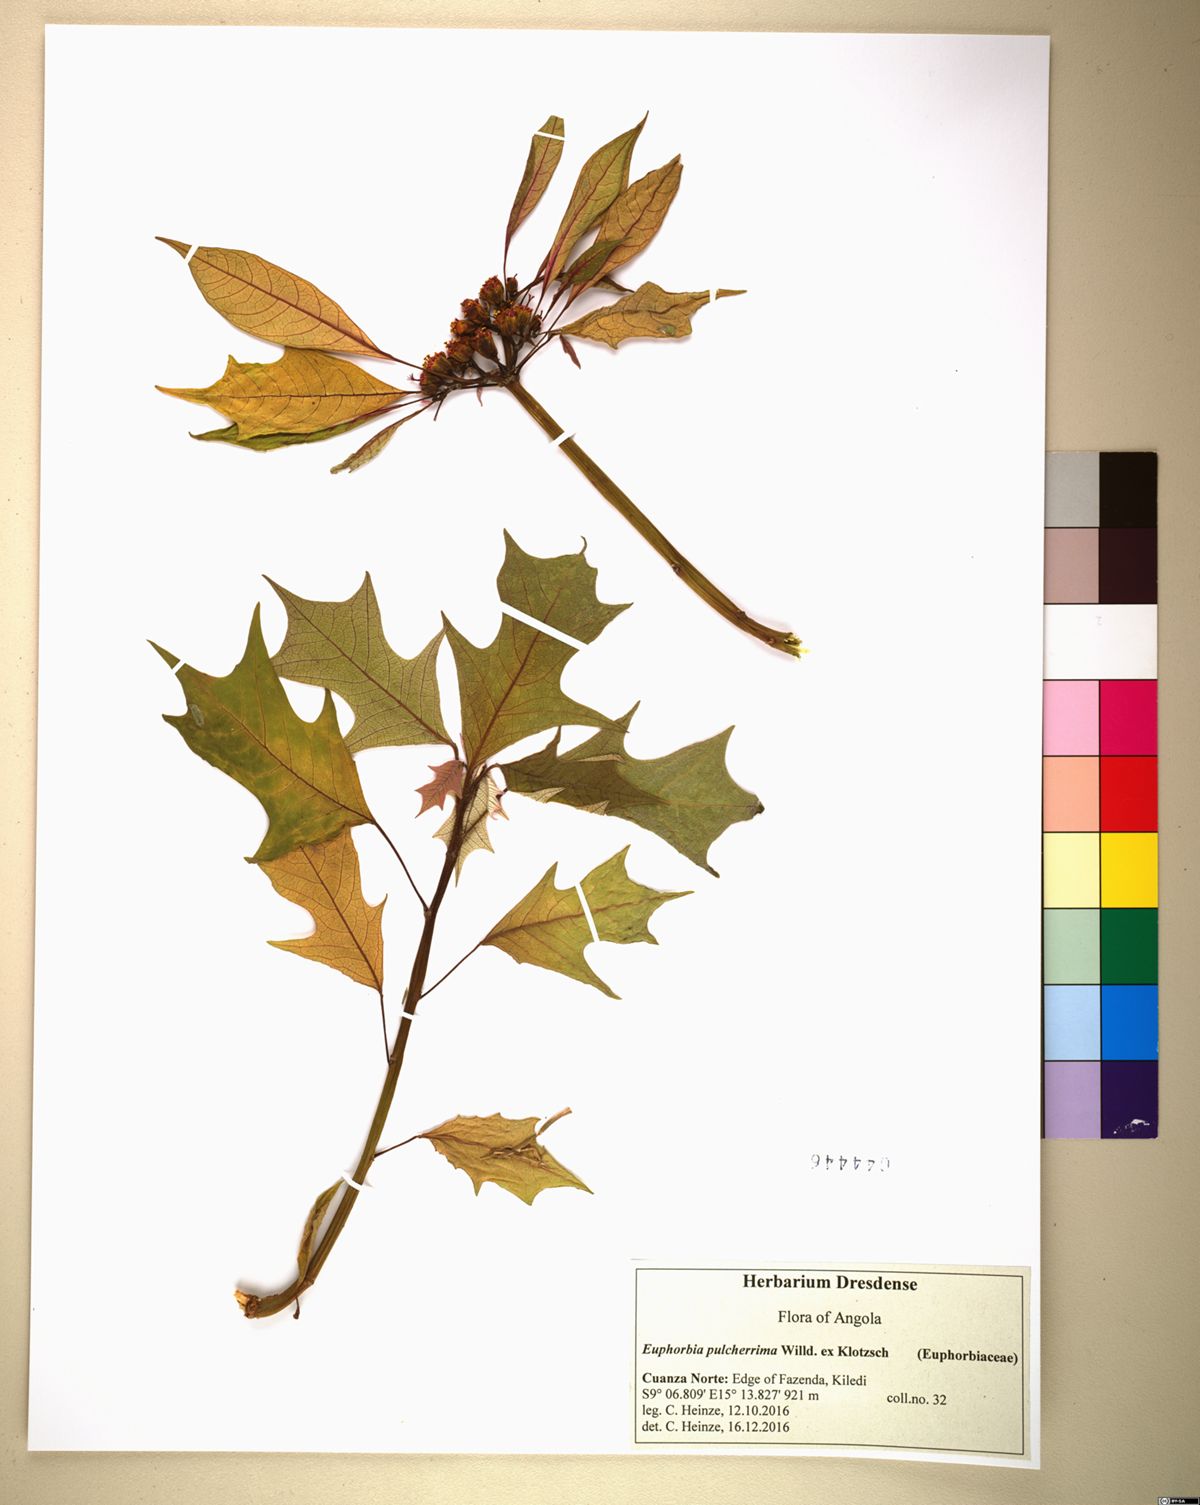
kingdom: Plantae
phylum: Tracheophyta
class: Magnoliopsida
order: Malpighiales
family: Euphorbiaceae
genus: Euphorbia
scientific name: Euphorbia pulcherrima
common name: Christmas-flower
